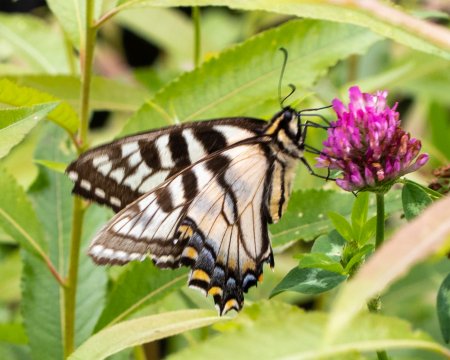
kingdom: Animalia
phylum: Arthropoda
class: Insecta
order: Lepidoptera
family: Papilionidae
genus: Pterourus
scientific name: Pterourus canadensis
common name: Canadian Tiger Swallowtail
